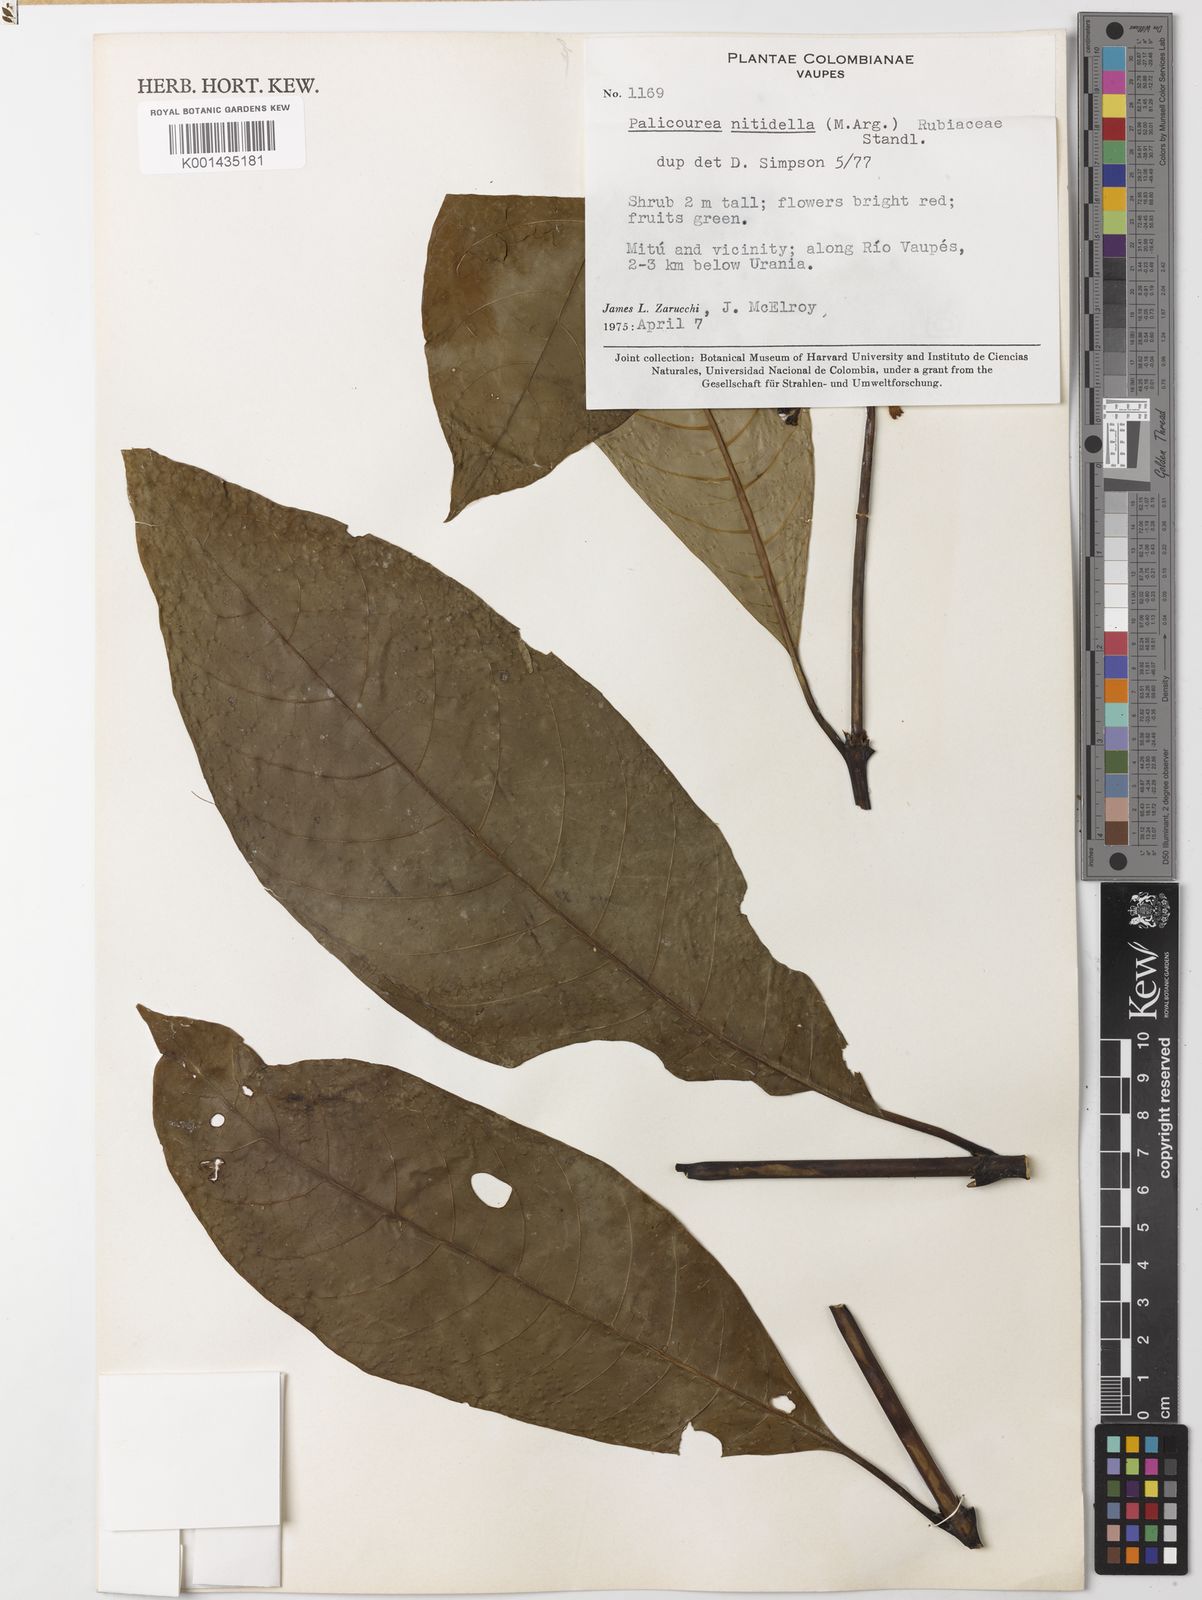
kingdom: Plantae
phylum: Tracheophyta
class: Magnoliopsida
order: Gentianales
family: Rubiaceae
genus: Palicourea
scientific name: Palicourea
